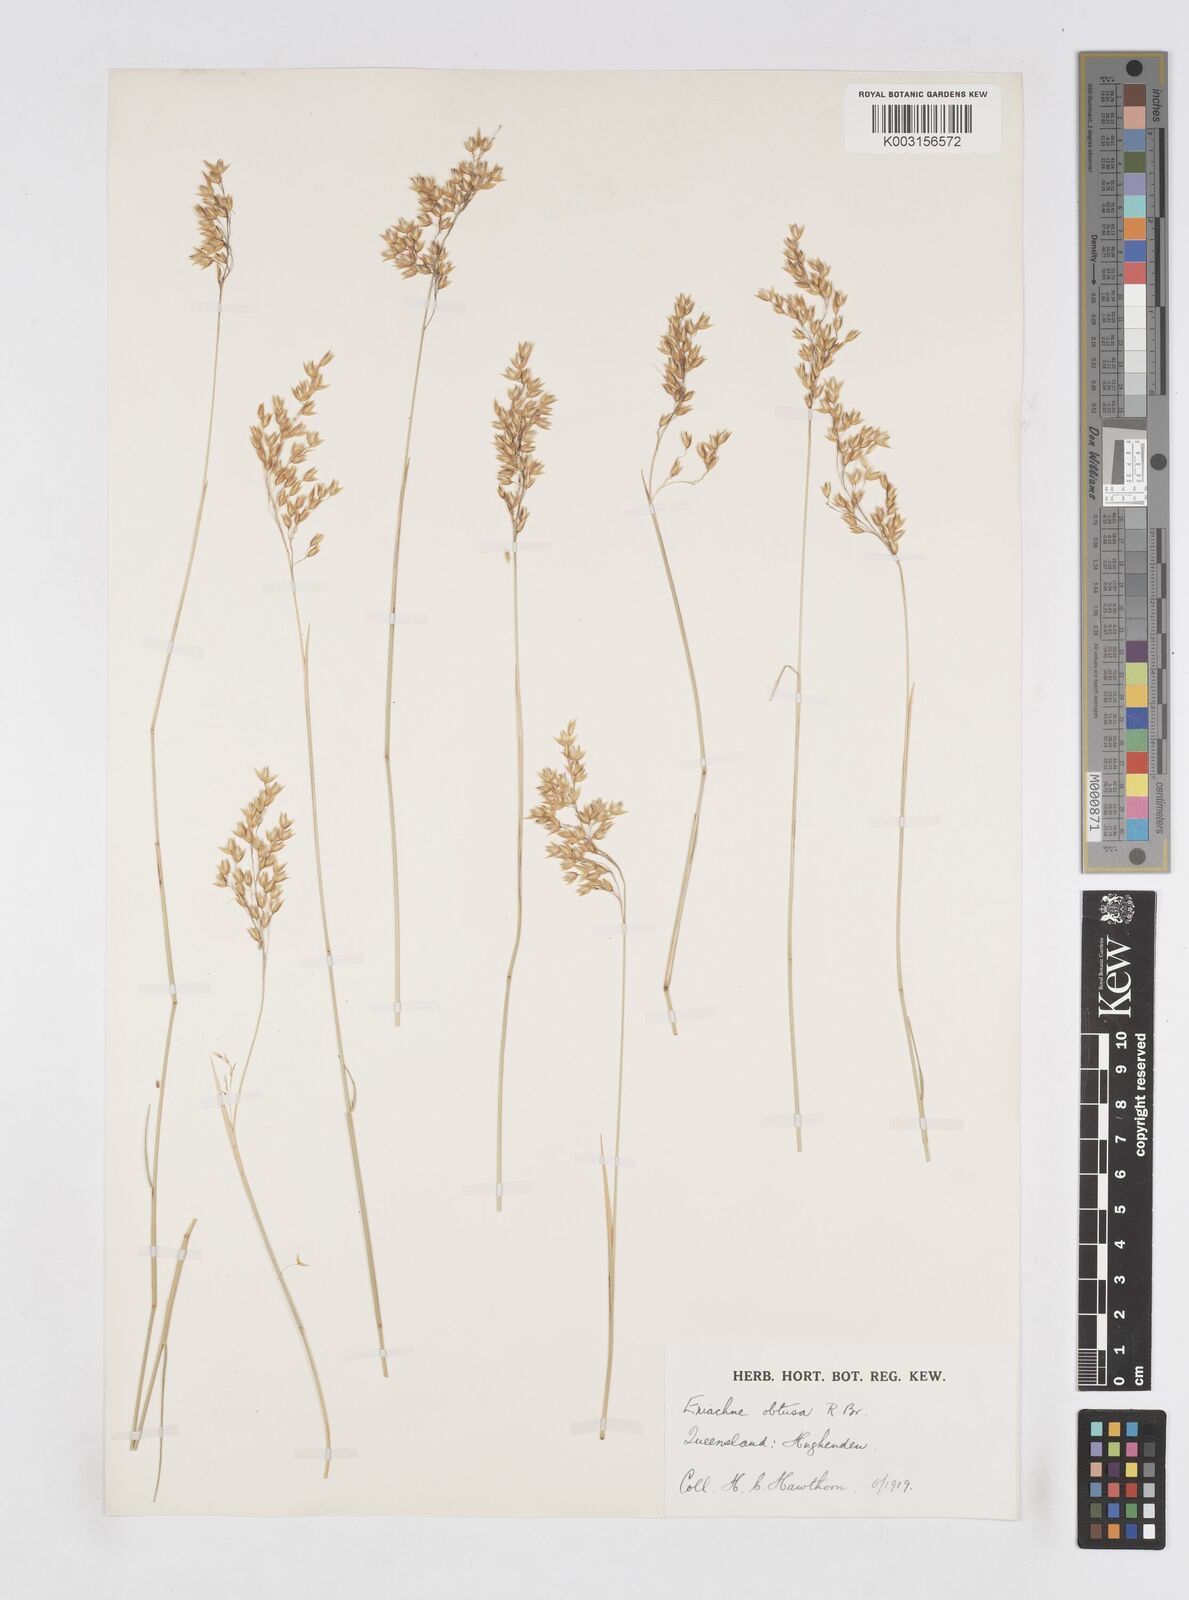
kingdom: Plantae
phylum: Tracheophyta
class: Liliopsida
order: Poales
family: Poaceae
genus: Eriachne
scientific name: Eriachne obtusa
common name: Northern wanderrie grass
